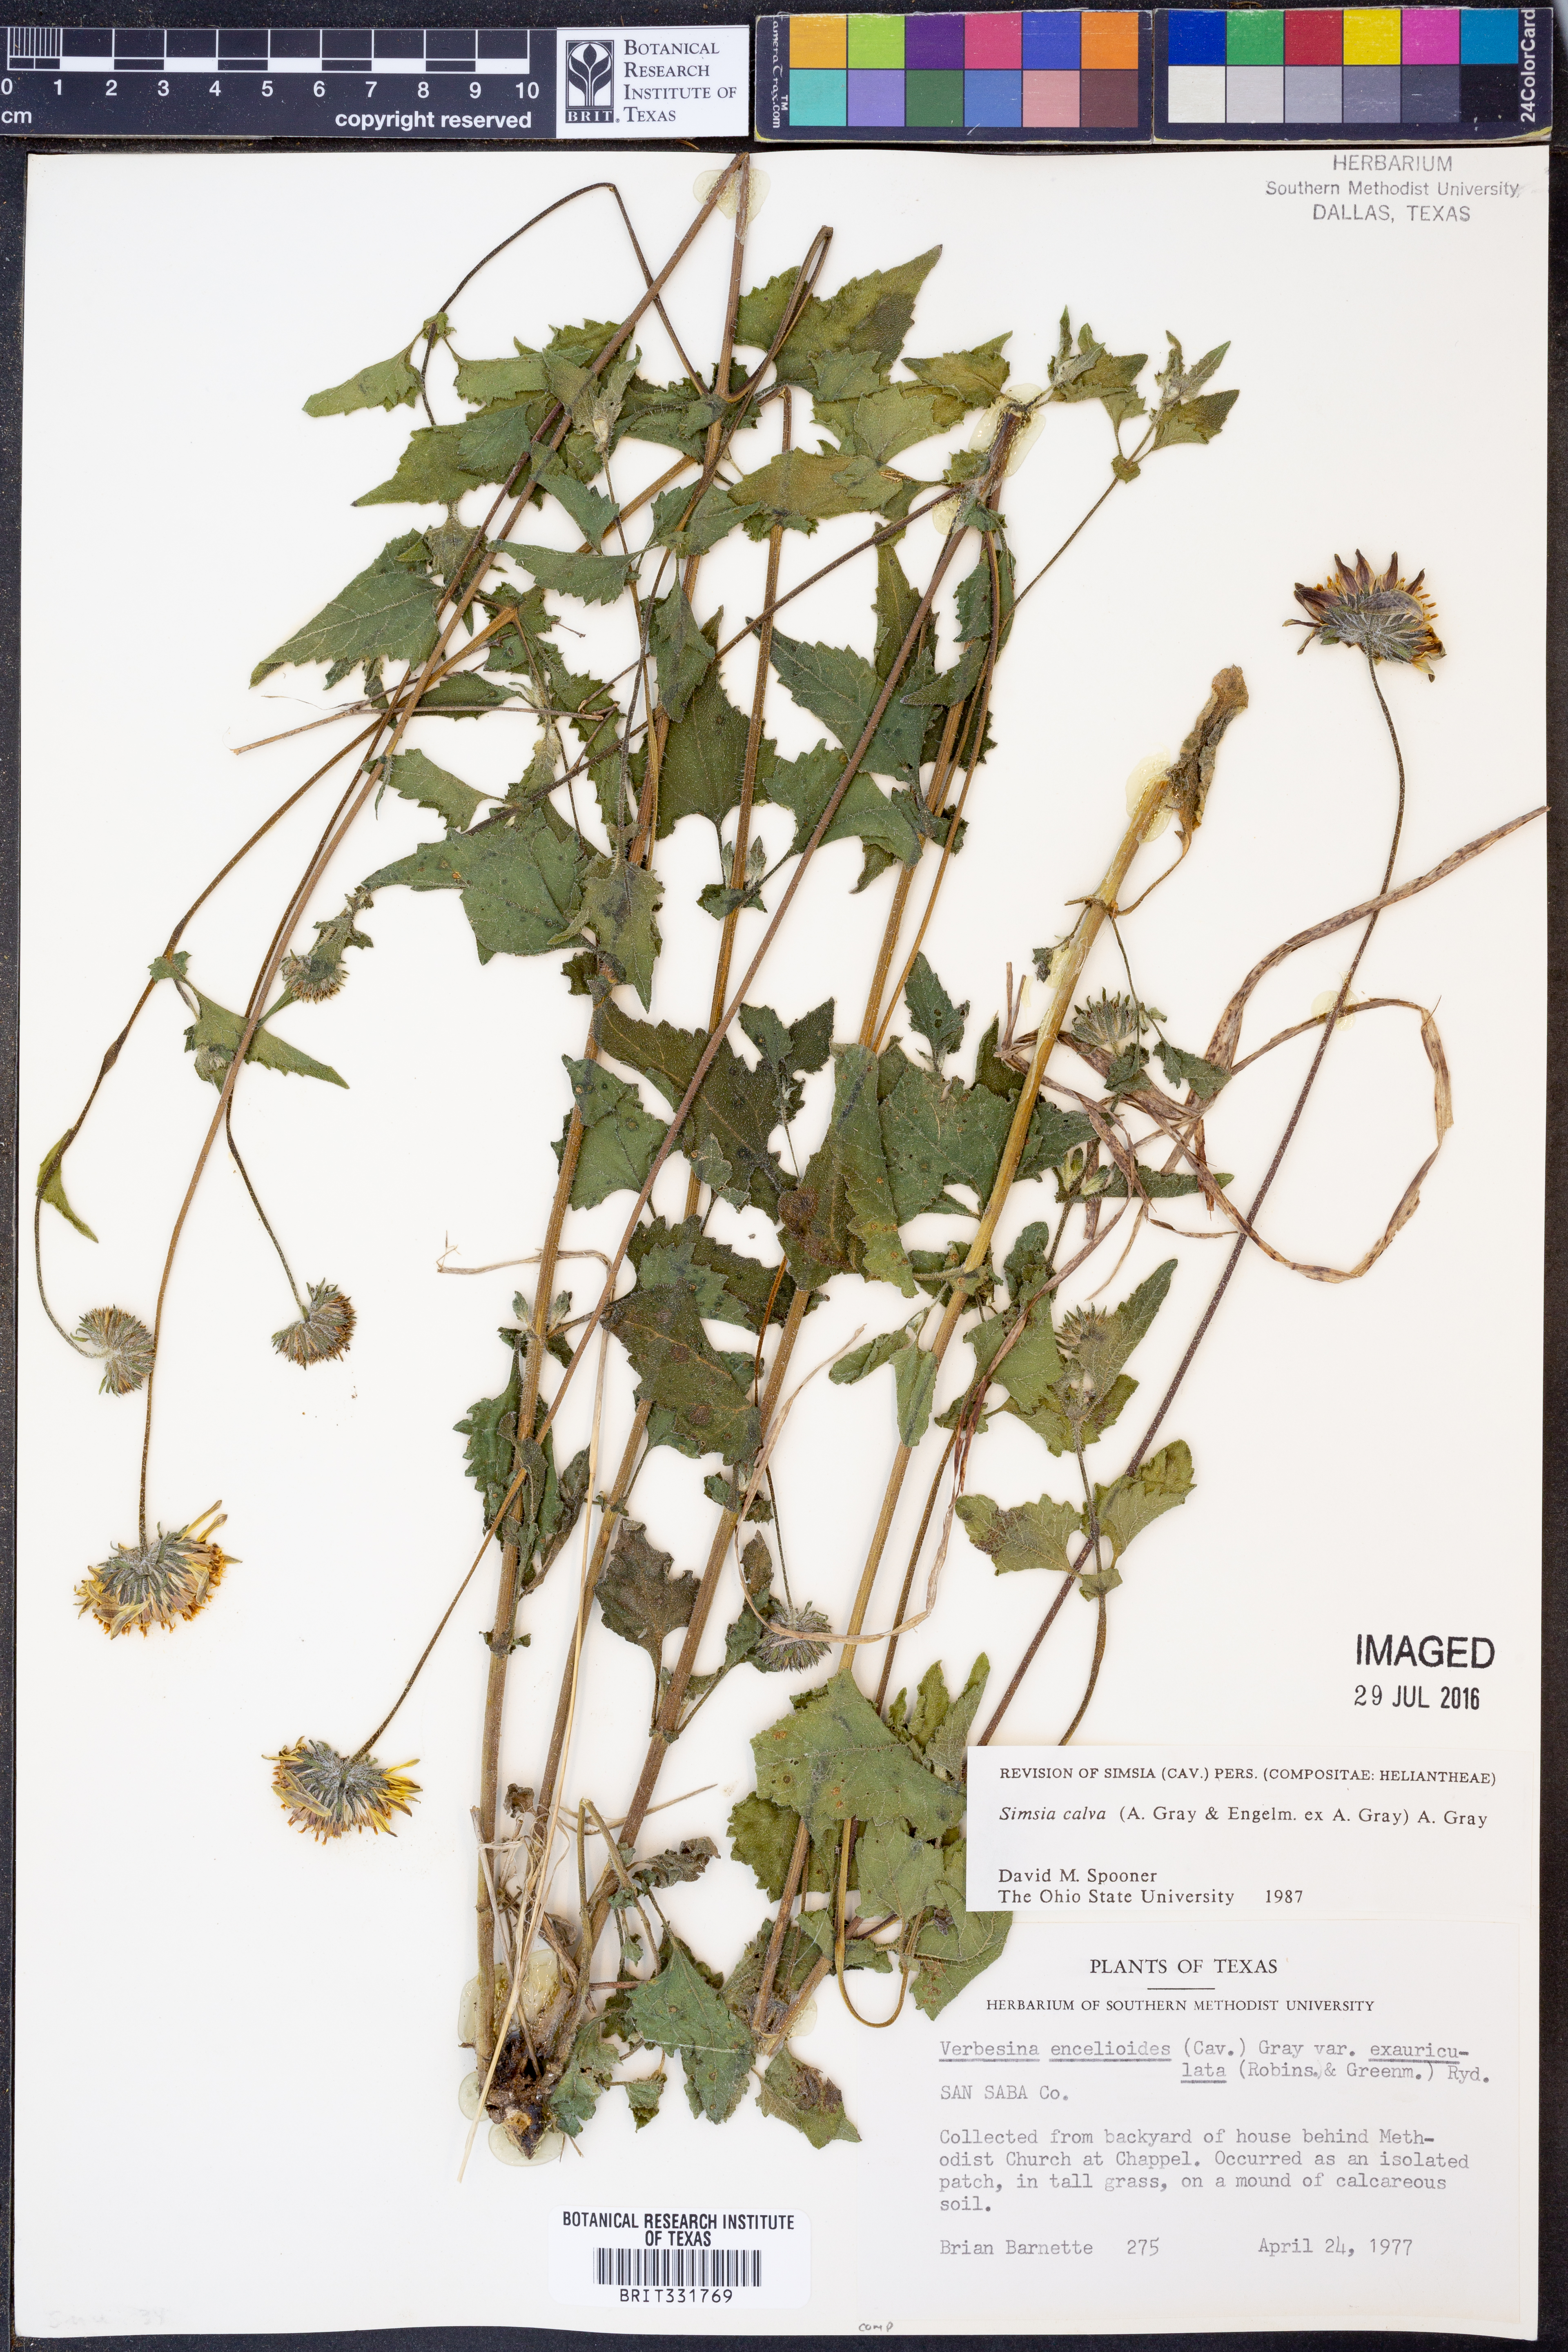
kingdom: Plantae
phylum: Tracheophyta
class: Magnoliopsida
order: Asterales
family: Asteraceae
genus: Simsia
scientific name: Simsia calva
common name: Awnless bush-sunflower
